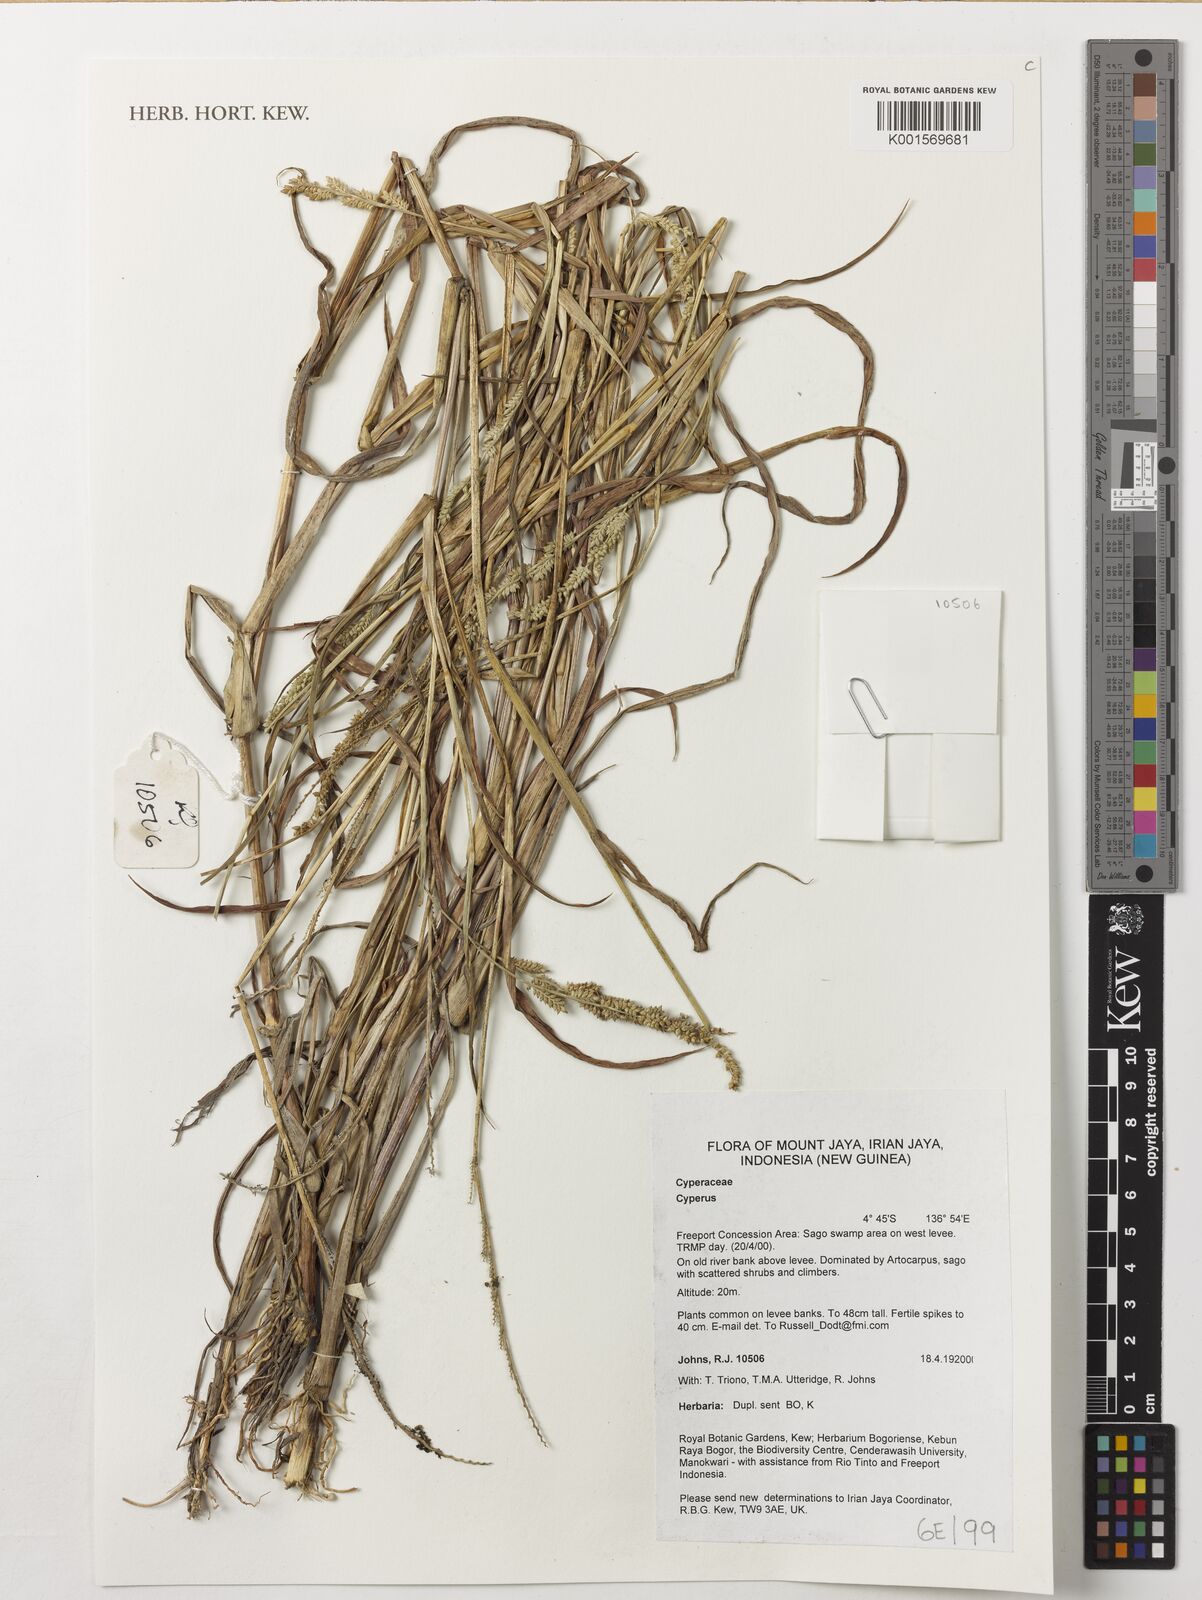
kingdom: Plantae
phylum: Tracheophyta
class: Liliopsida
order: Poales
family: Cyperaceae
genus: Cyperus
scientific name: Cyperus
